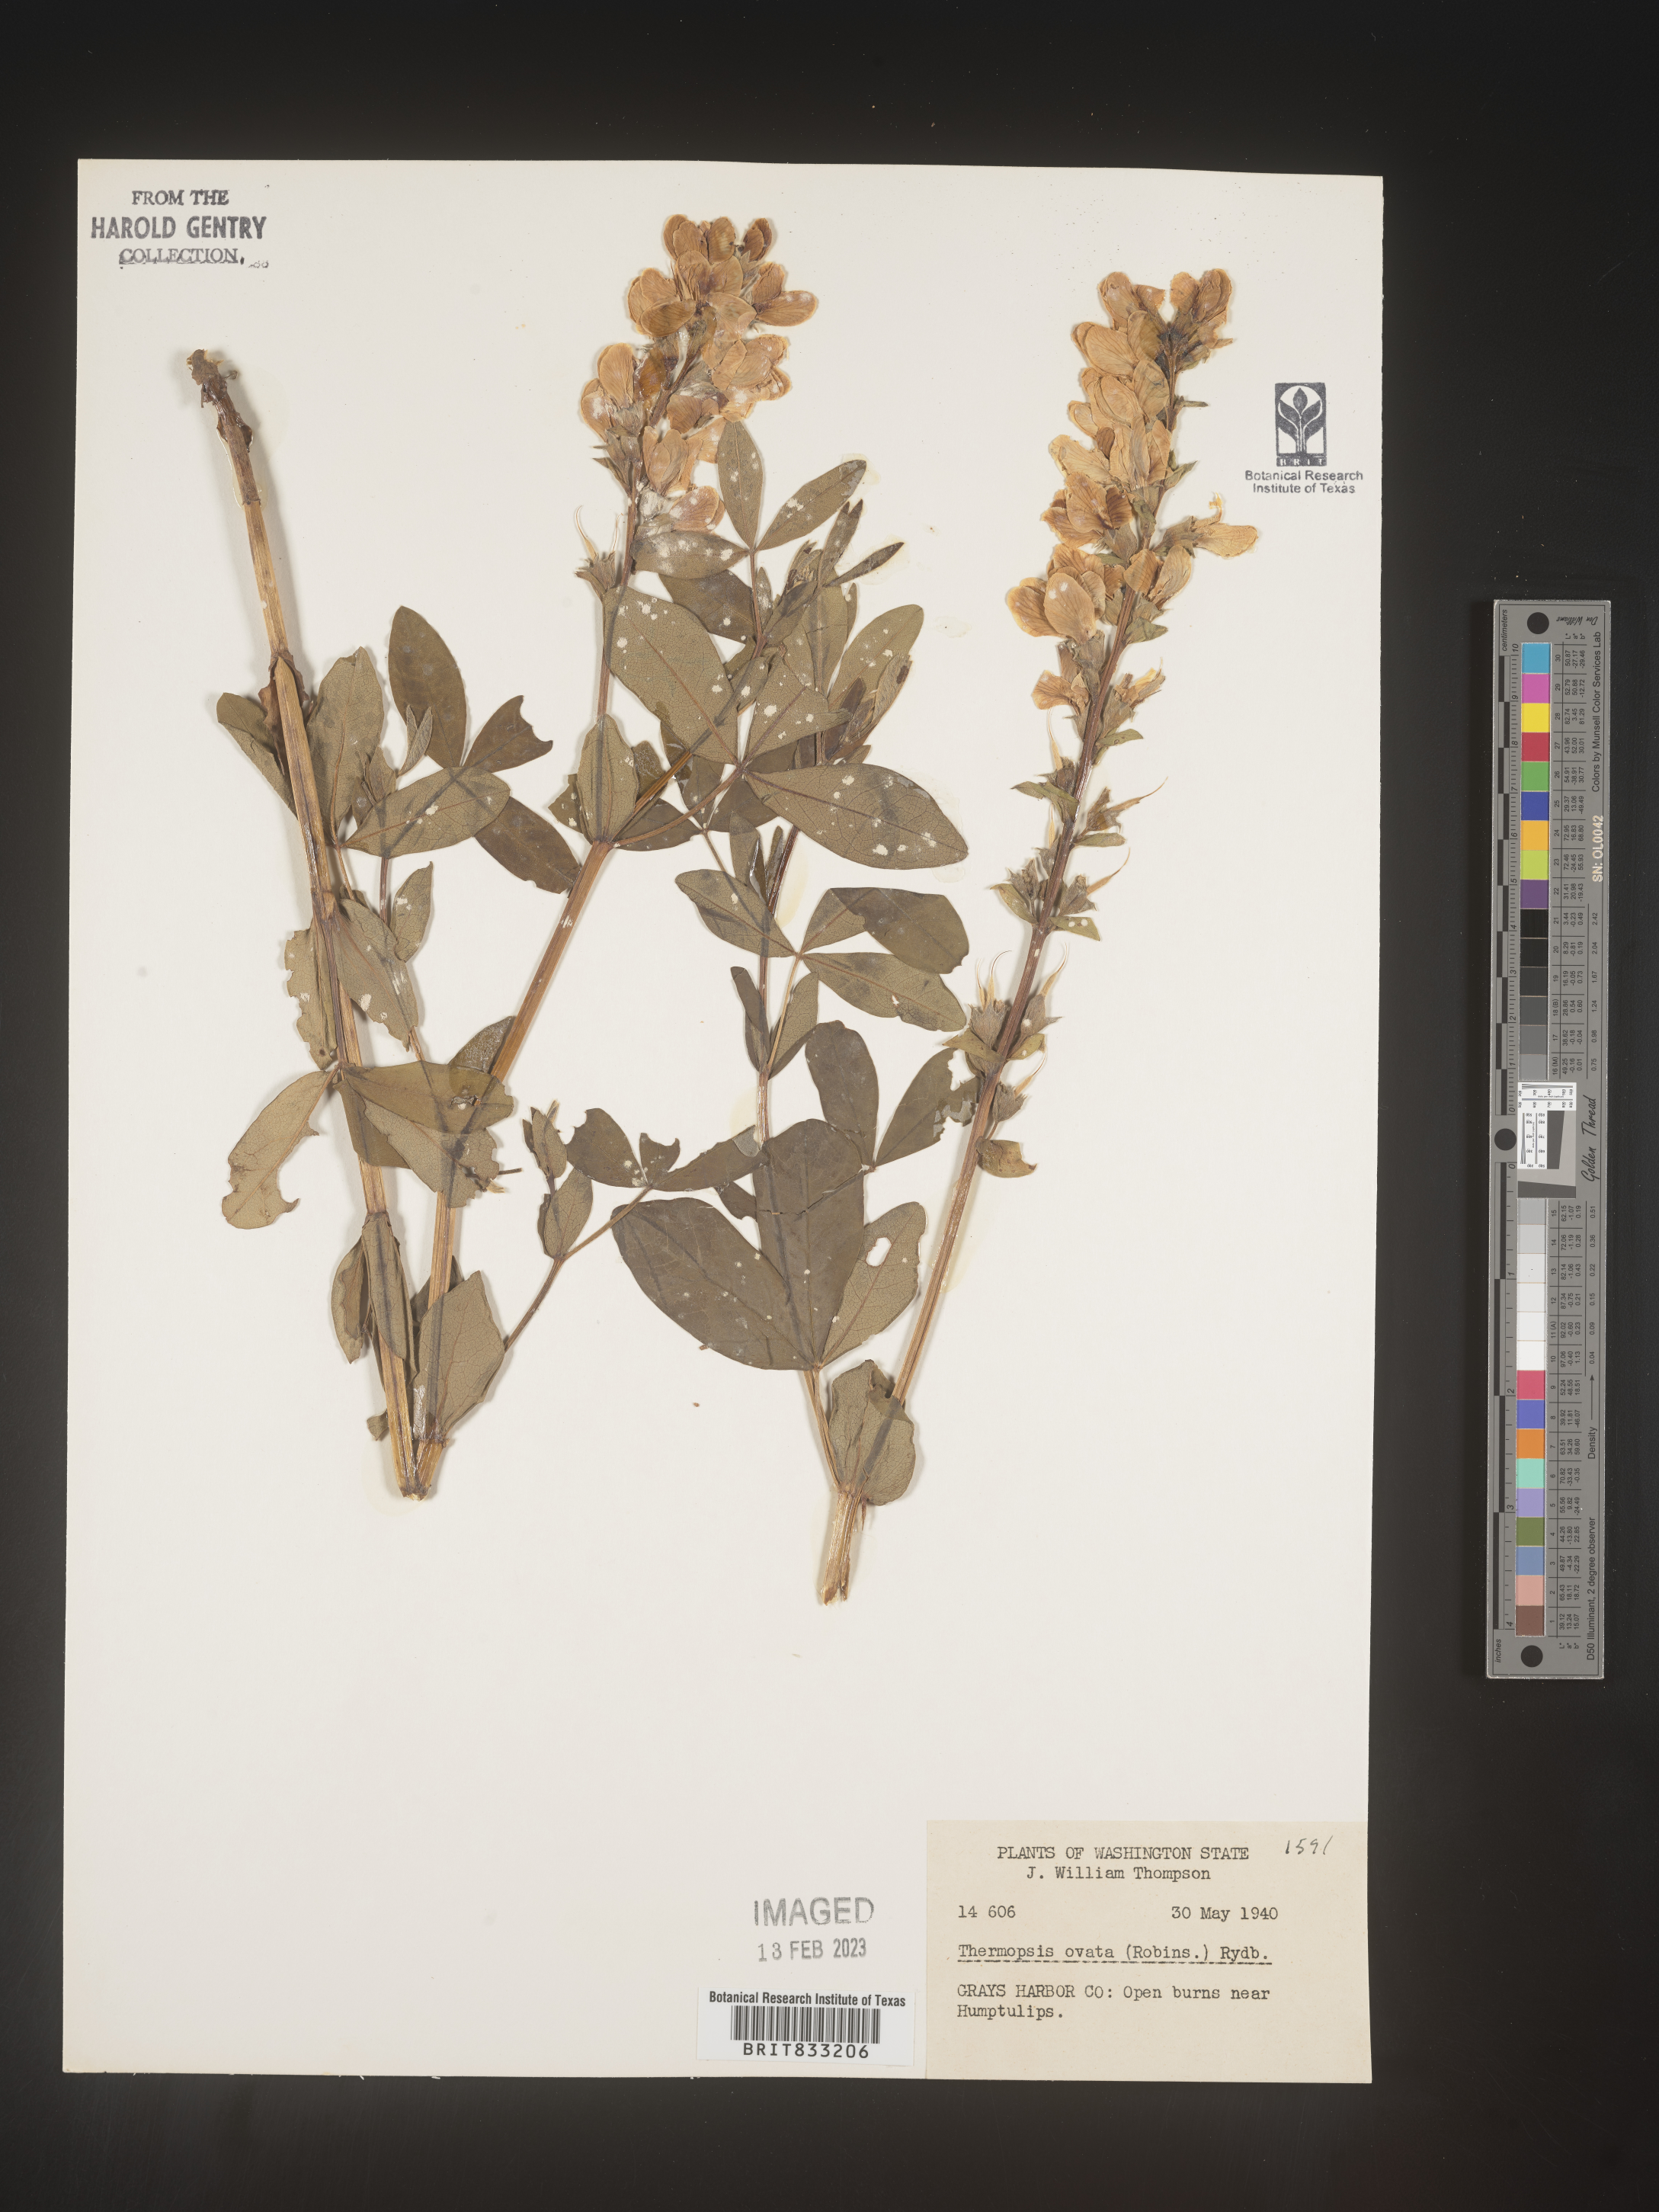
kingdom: Plantae
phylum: Tracheophyta
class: Magnoliopsida
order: Fabales
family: Fabaceae
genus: Thermopsis
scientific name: Thermopsis gracilis
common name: Slender golden-banner
